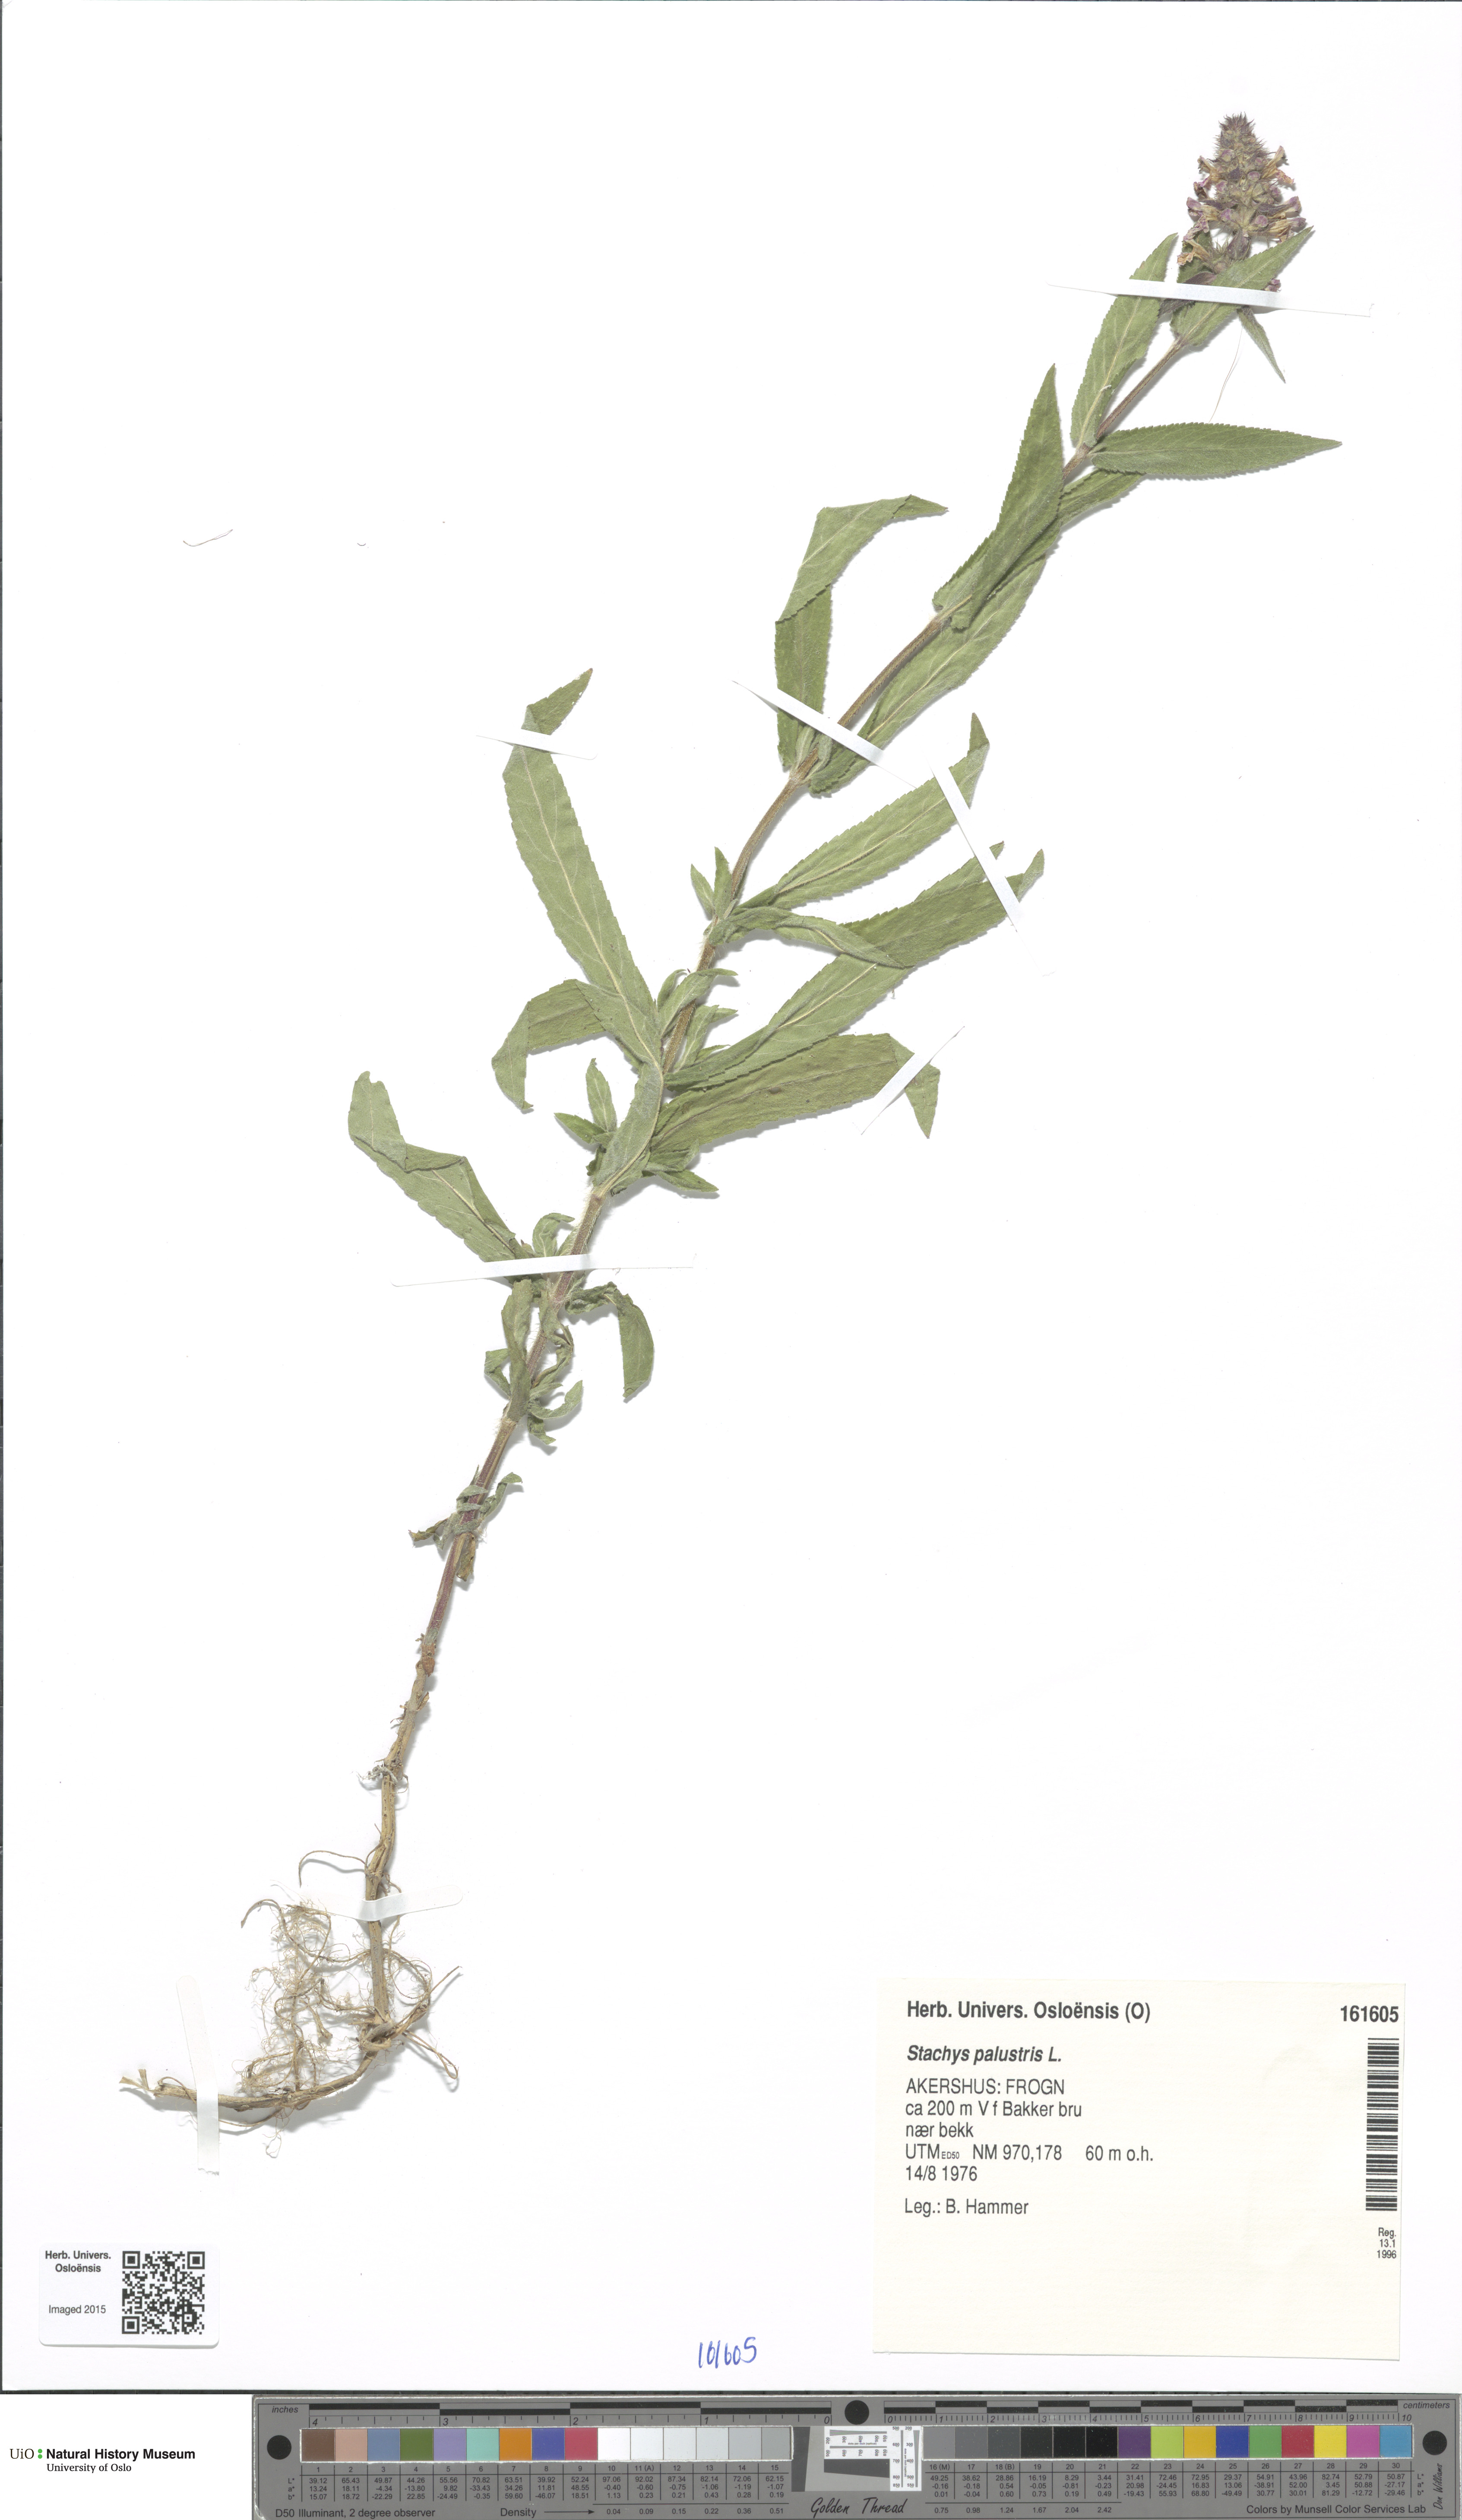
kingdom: Plantae
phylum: Tracheophyta
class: Magnoliopsida
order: Lamiales
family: Lamiaceae
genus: Stachys
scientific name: Stachys palustris
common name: Marsh woundwort
